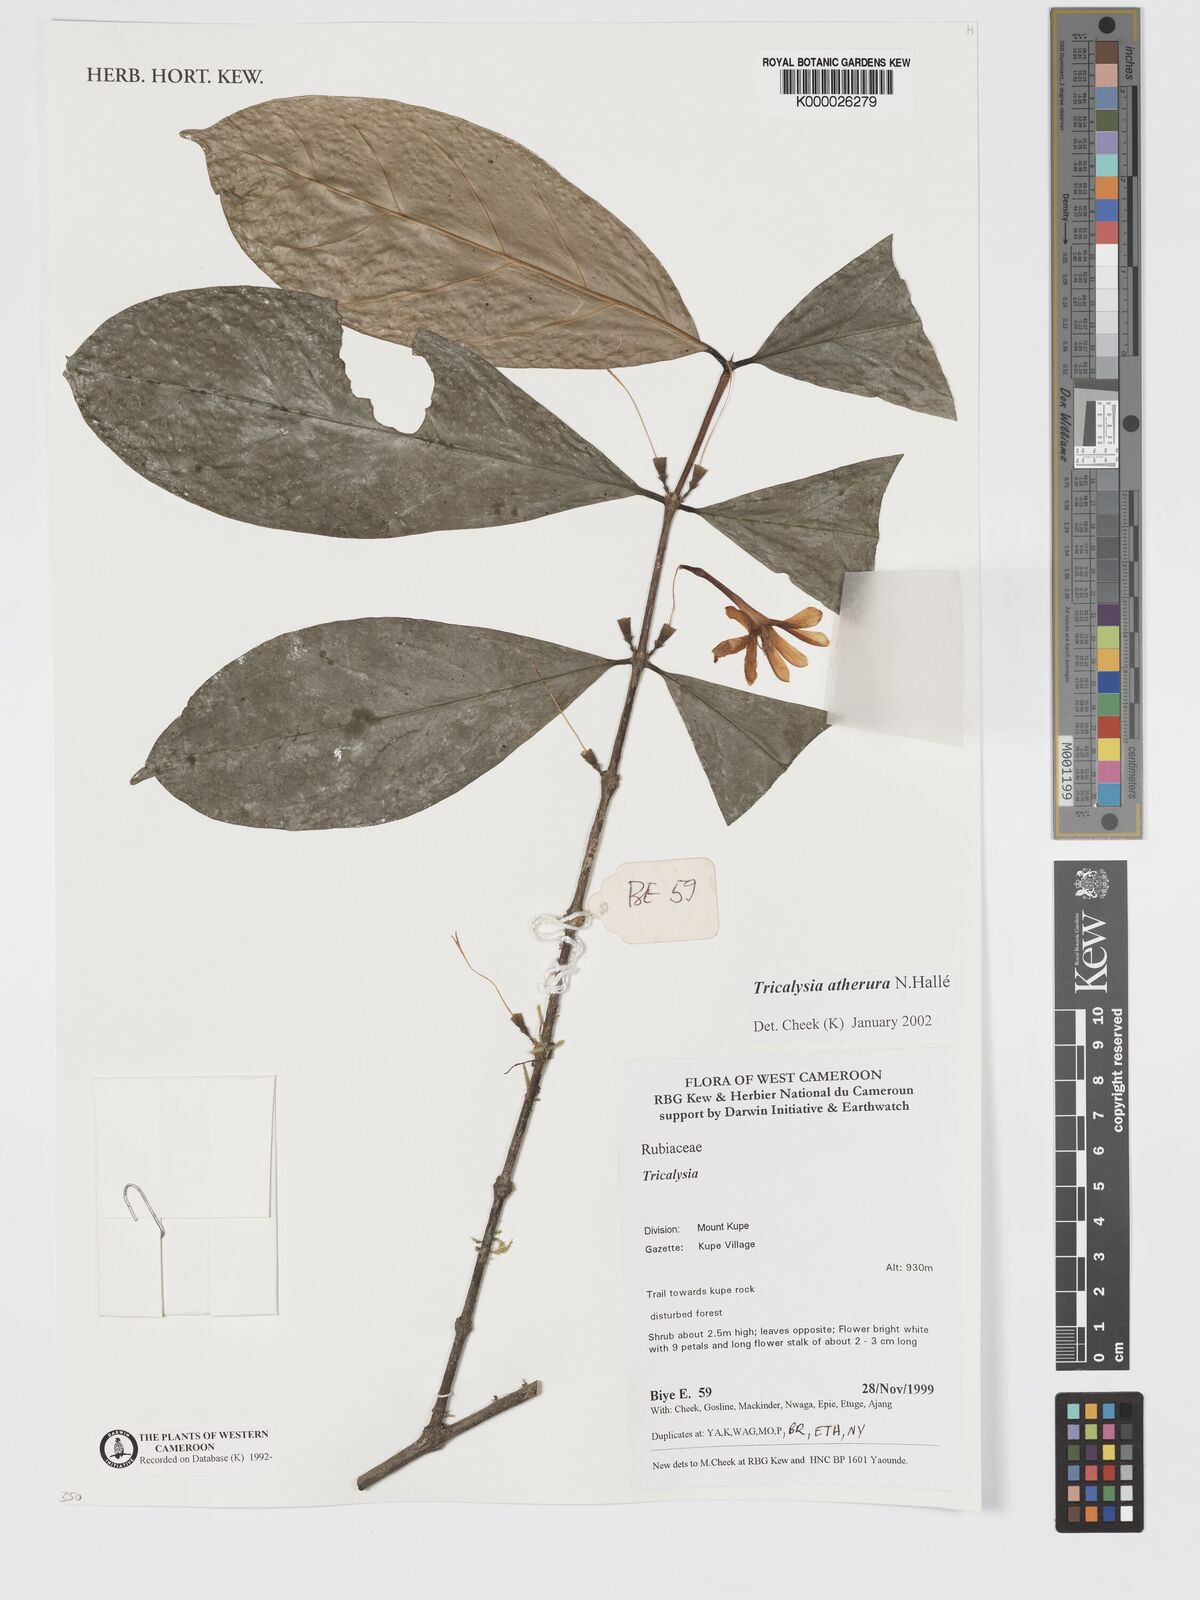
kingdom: Plantae
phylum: Tracheophyta
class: Magnoliopsida
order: Gentianales
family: Rubiaceae
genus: Tricalysia
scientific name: Tricalysia
